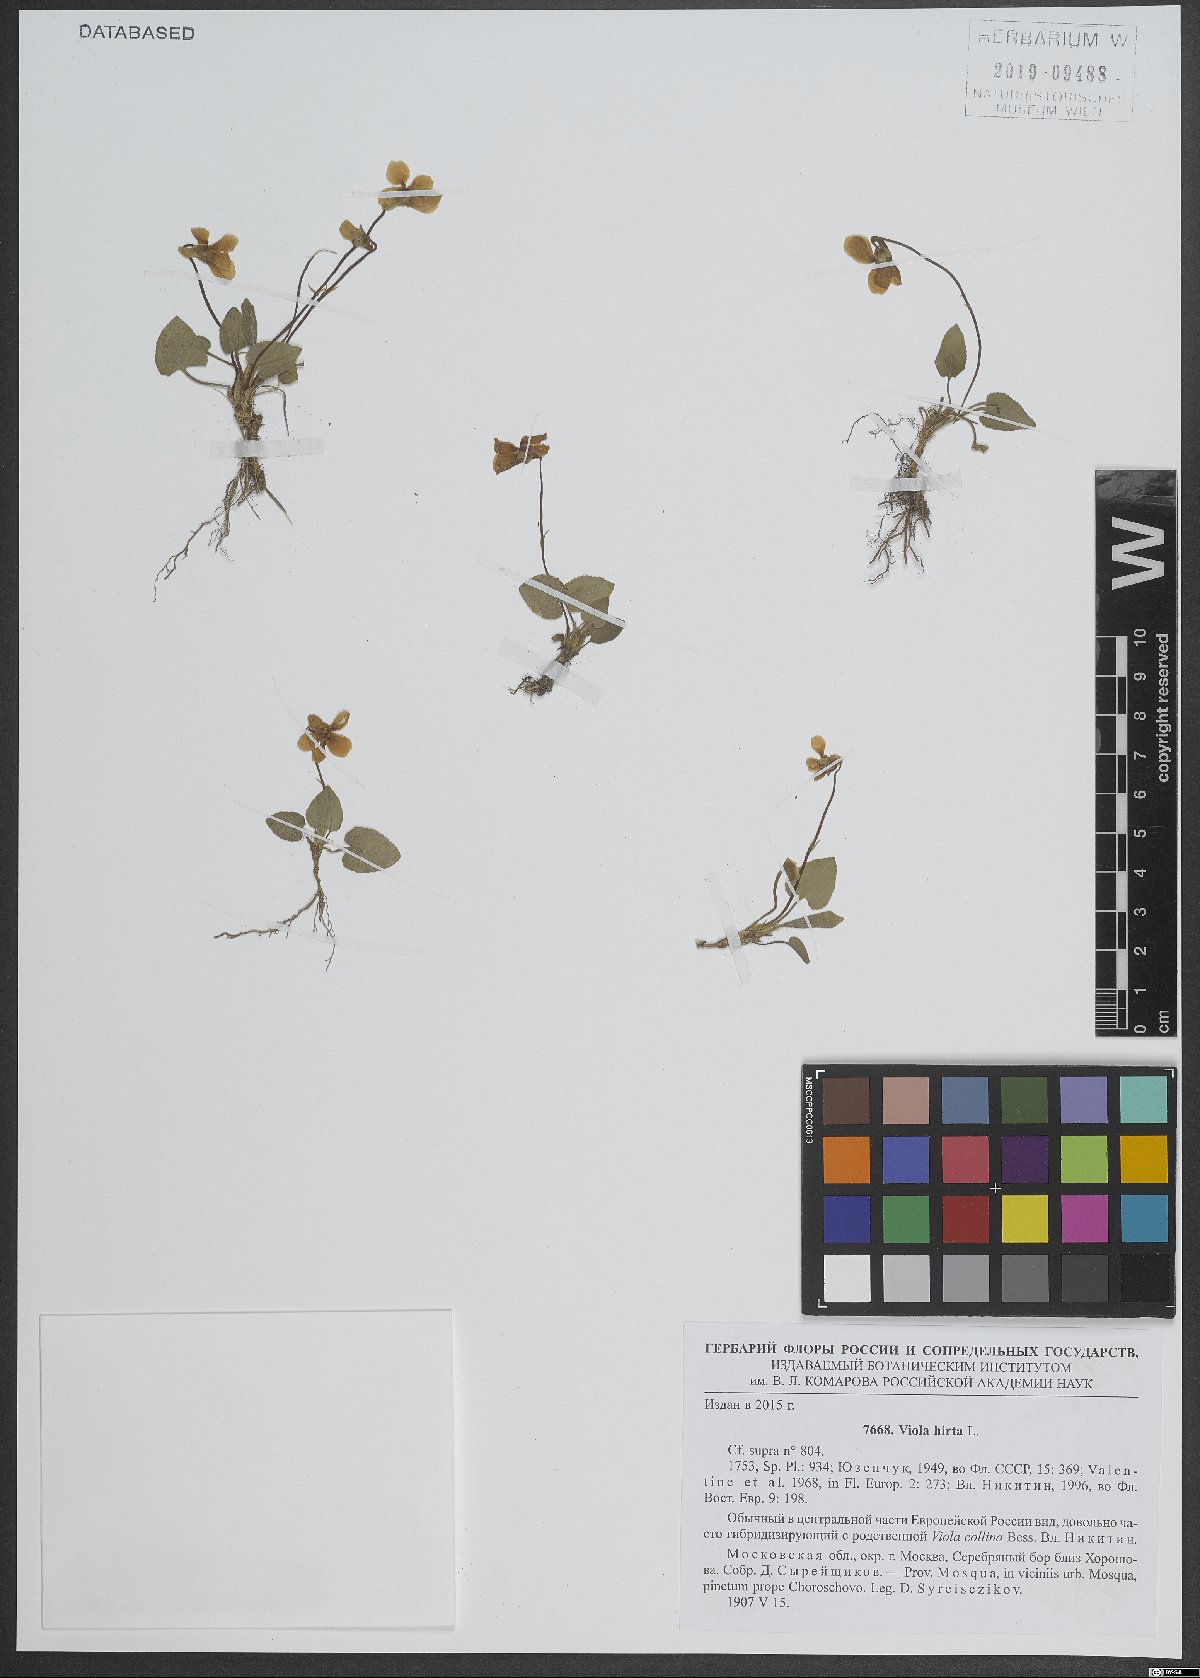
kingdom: Plantae
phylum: Tracheophyta
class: Magnoliopsida
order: Malpighiales
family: Violaceae
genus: Viola
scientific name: Viola hirta
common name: Hairy violet
